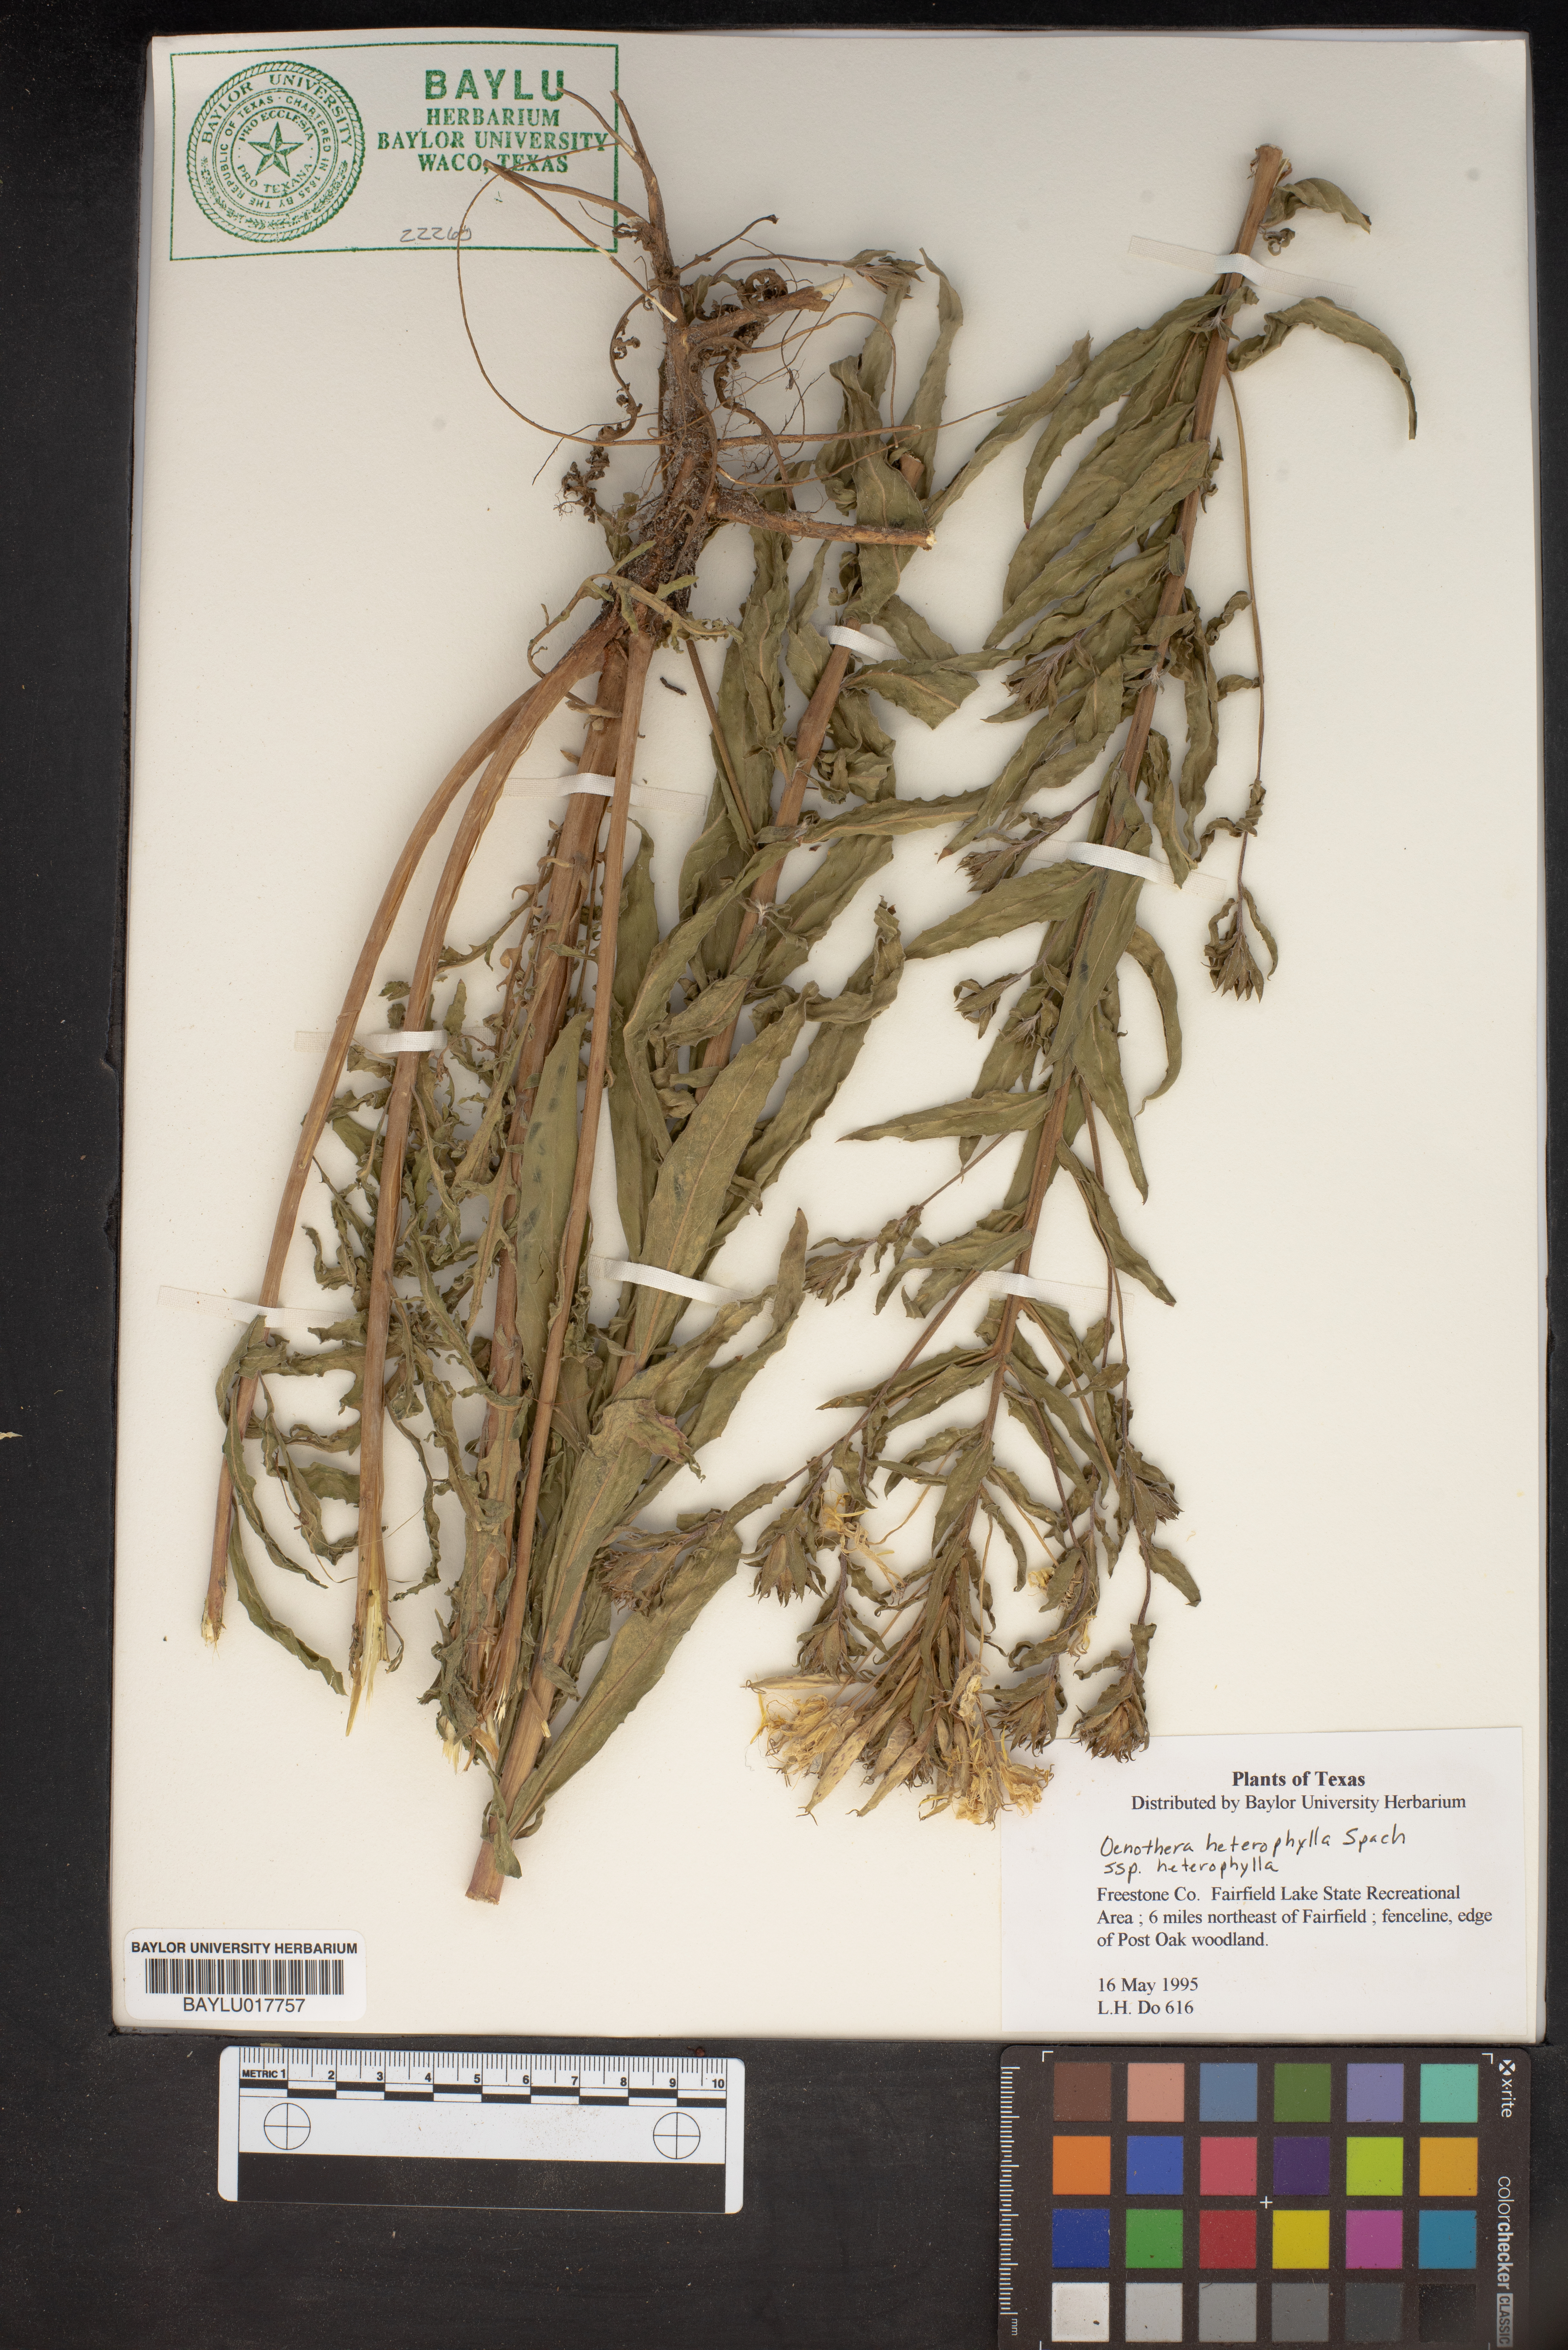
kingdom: Plantae
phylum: Tracheophyta
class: Magnoliopsida
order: Myrtales
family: Onagraceae
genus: Camissonia
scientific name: Camissonia dentata
